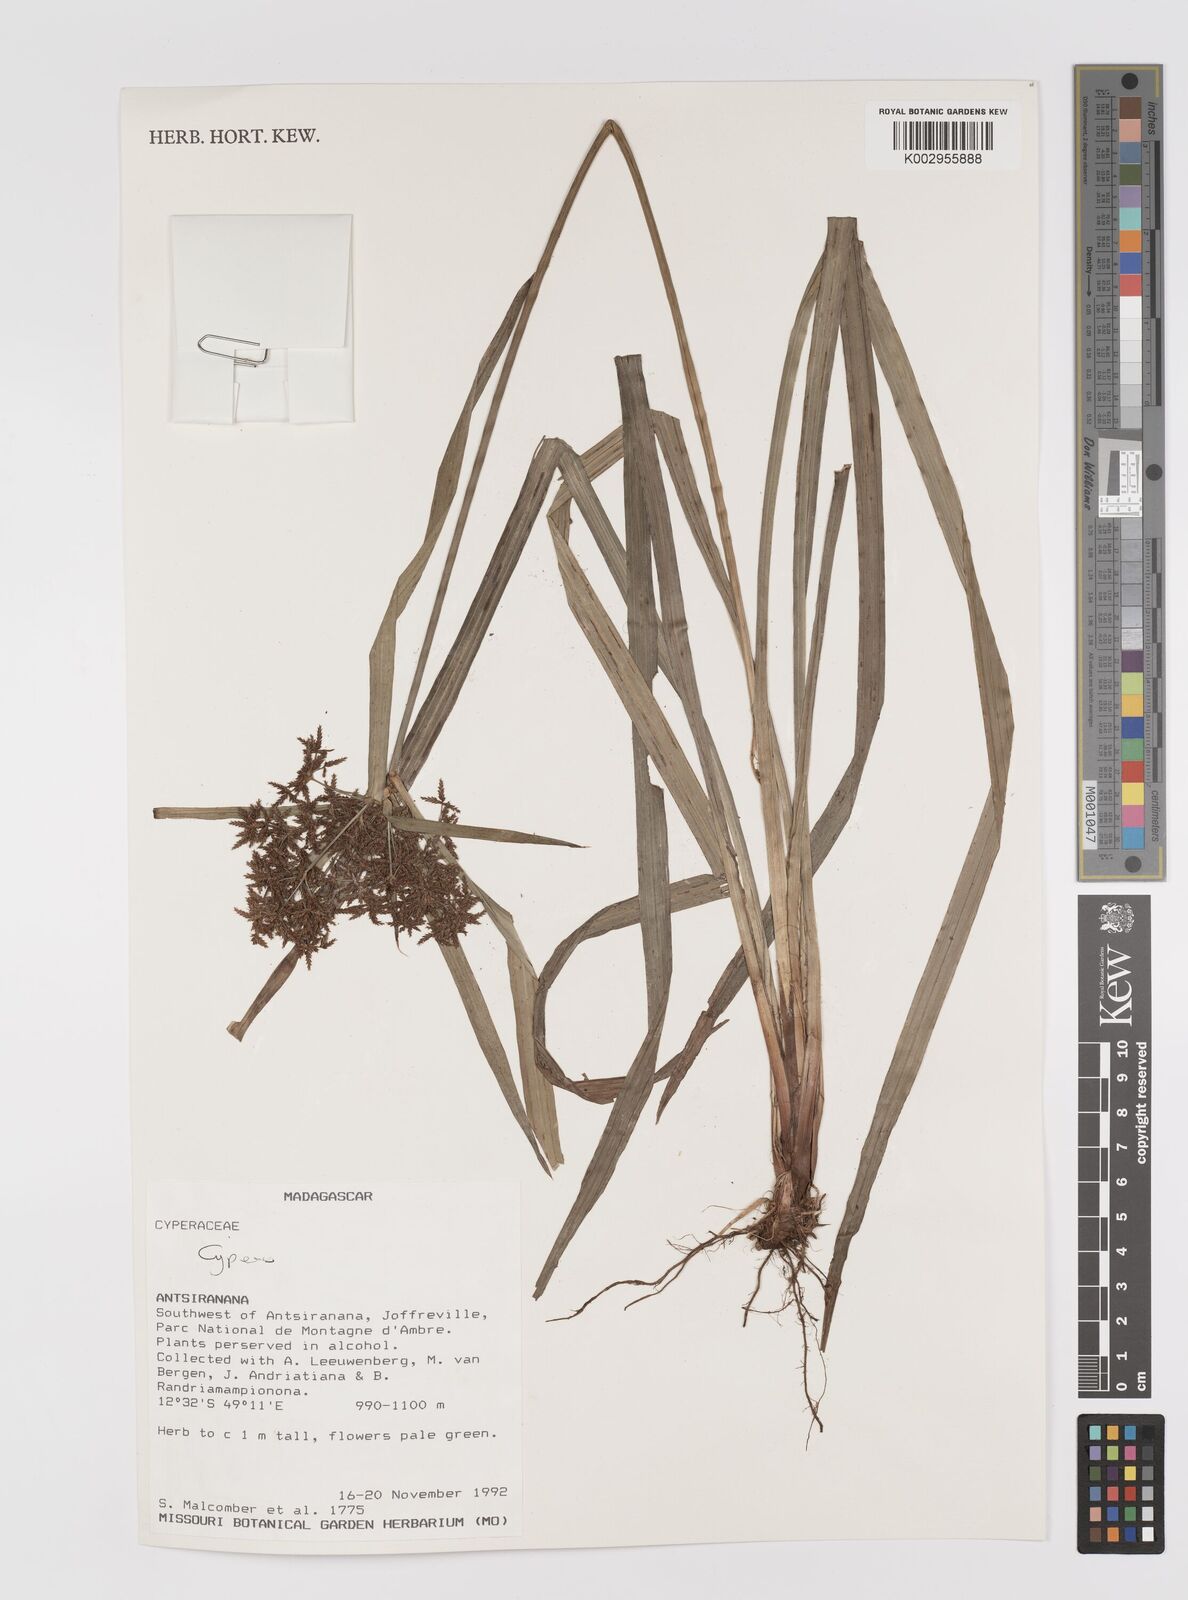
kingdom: Plantae
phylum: Tracheophyta
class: Liliopsida
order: Poales
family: Cyperaceae
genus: Cyperus
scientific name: Cyperus
